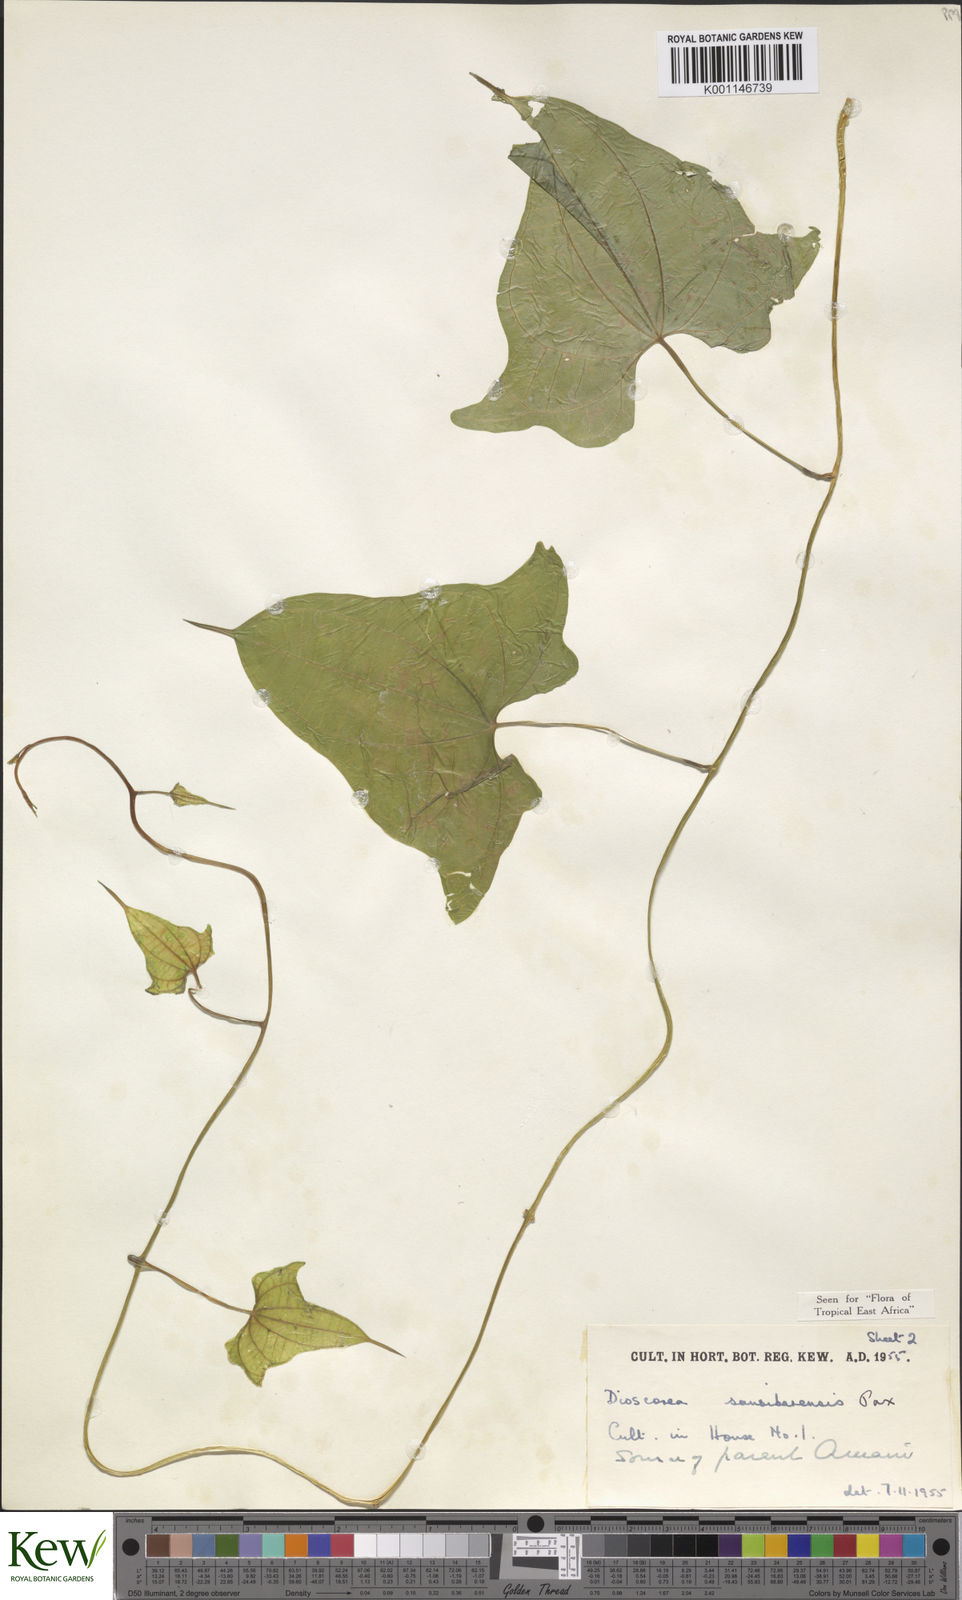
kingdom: Plantae
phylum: Tracheophyta
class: Liliopsida
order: Dioscoreales
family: Dioscoreaceae
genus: Dioscorea
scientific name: Dioscorea sansibarensis
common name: Zanzibar yam
